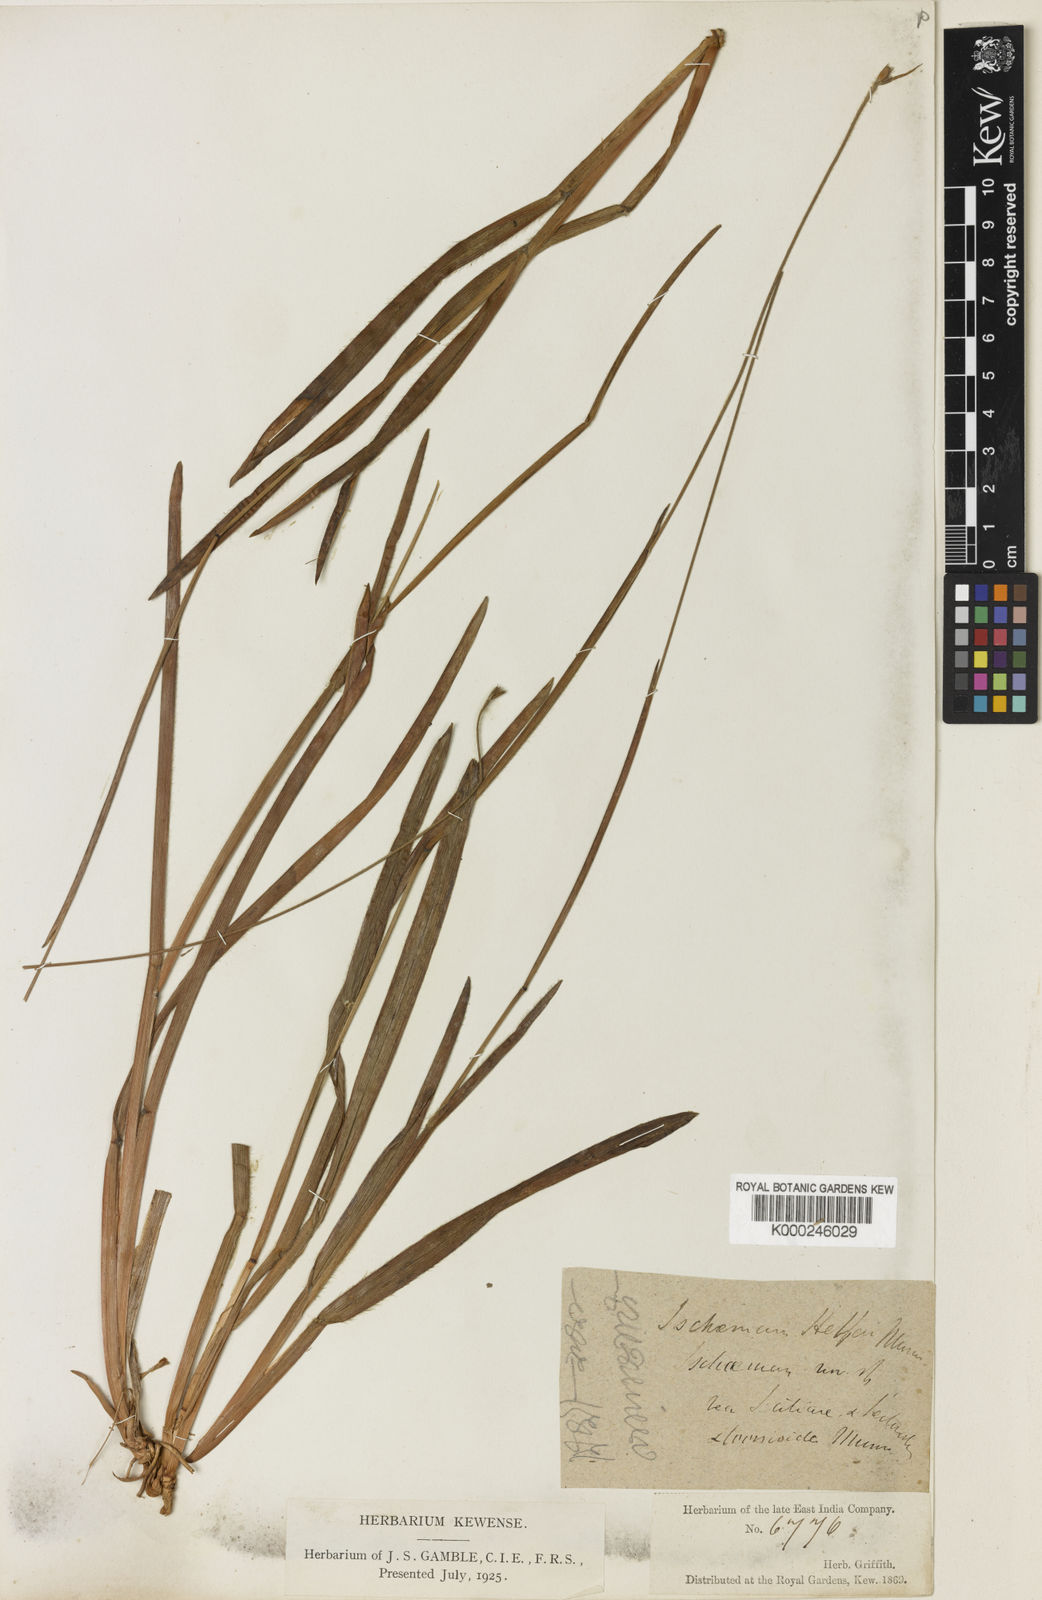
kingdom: Plantae
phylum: Tracheophyta
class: Liliopsida
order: Poales
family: Poaceae
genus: Eremochloa
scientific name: Eremochloa ciliatifolia
